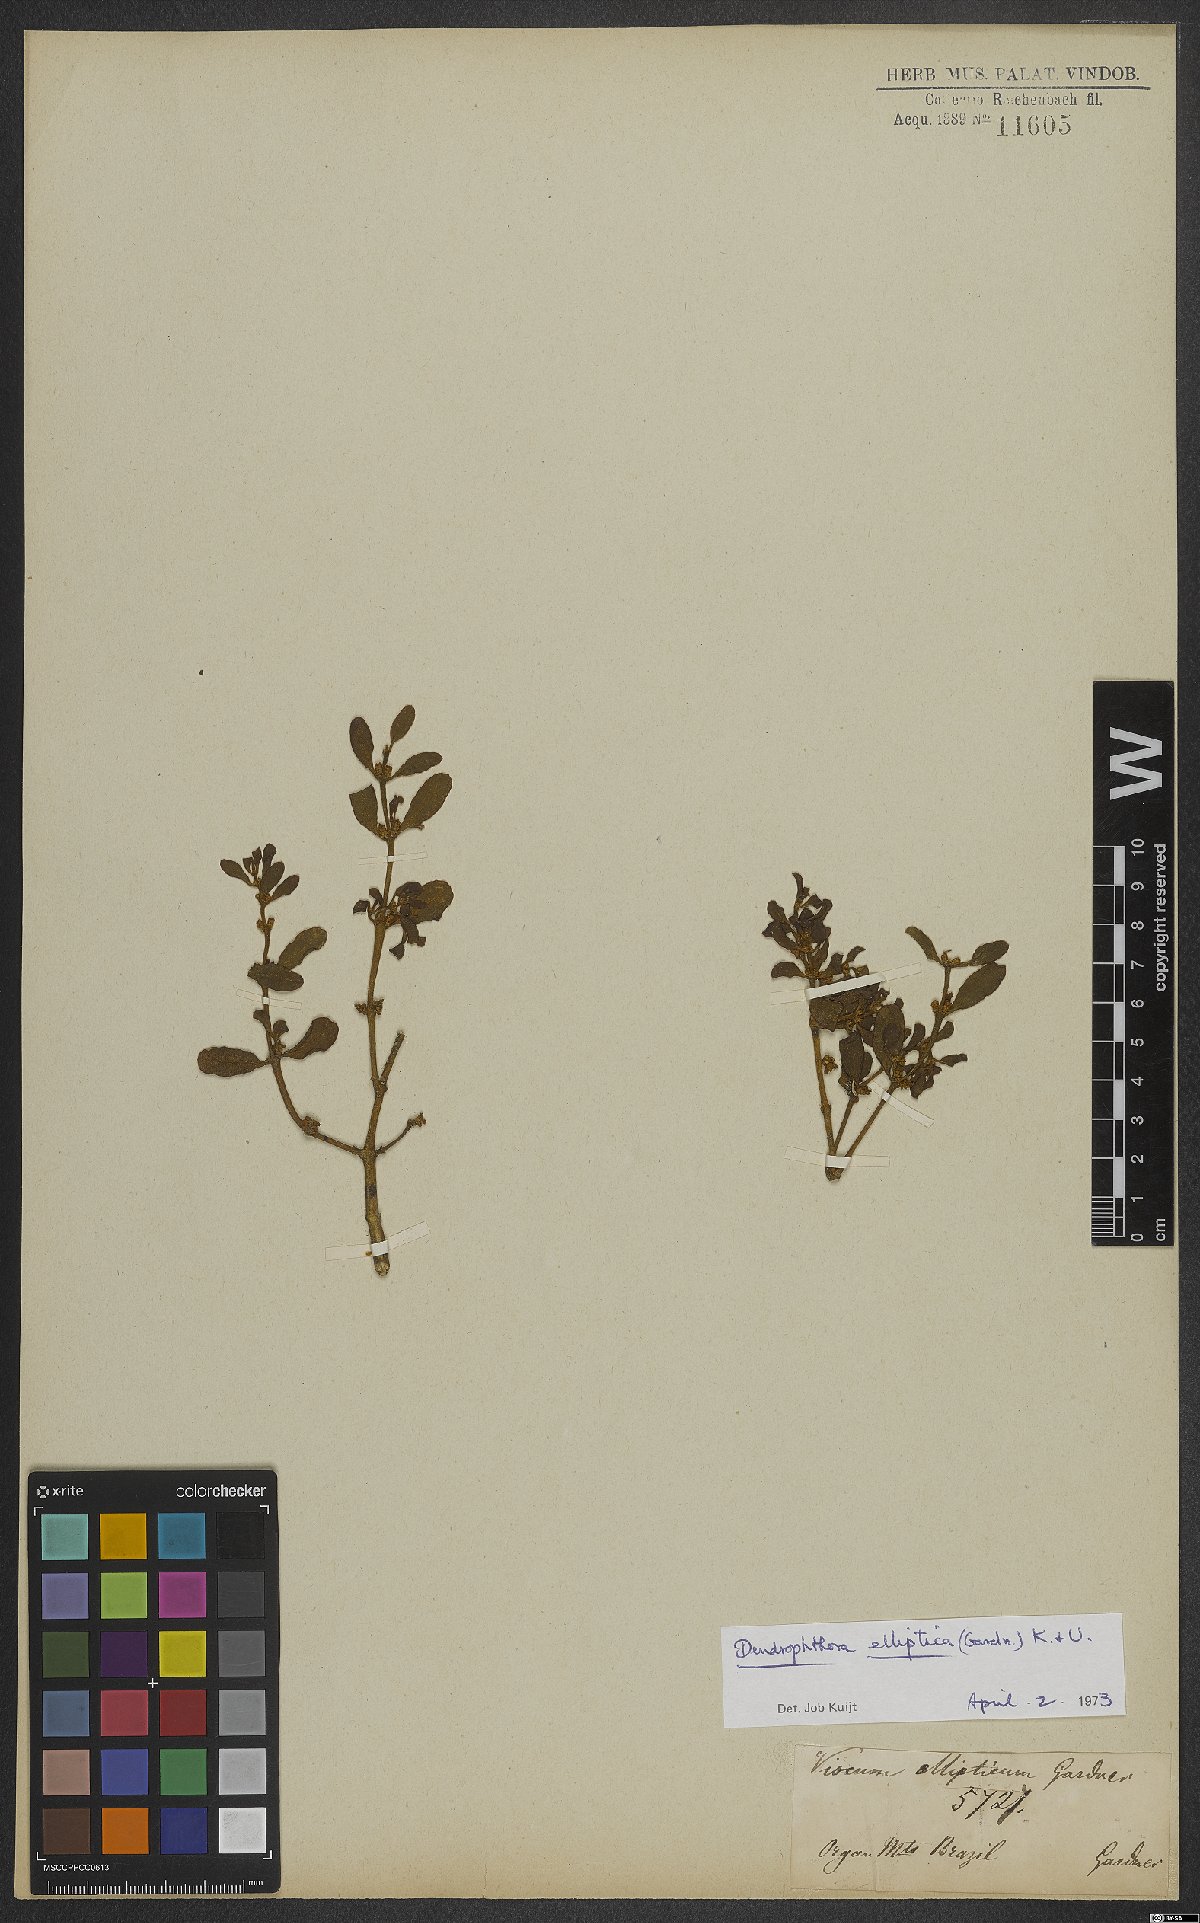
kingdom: Plantae
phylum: Tracheophyta
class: Magnoliopsida
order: Santalales
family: Viscaceae
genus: Dendrophthora
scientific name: Dendrophthora elliptica
